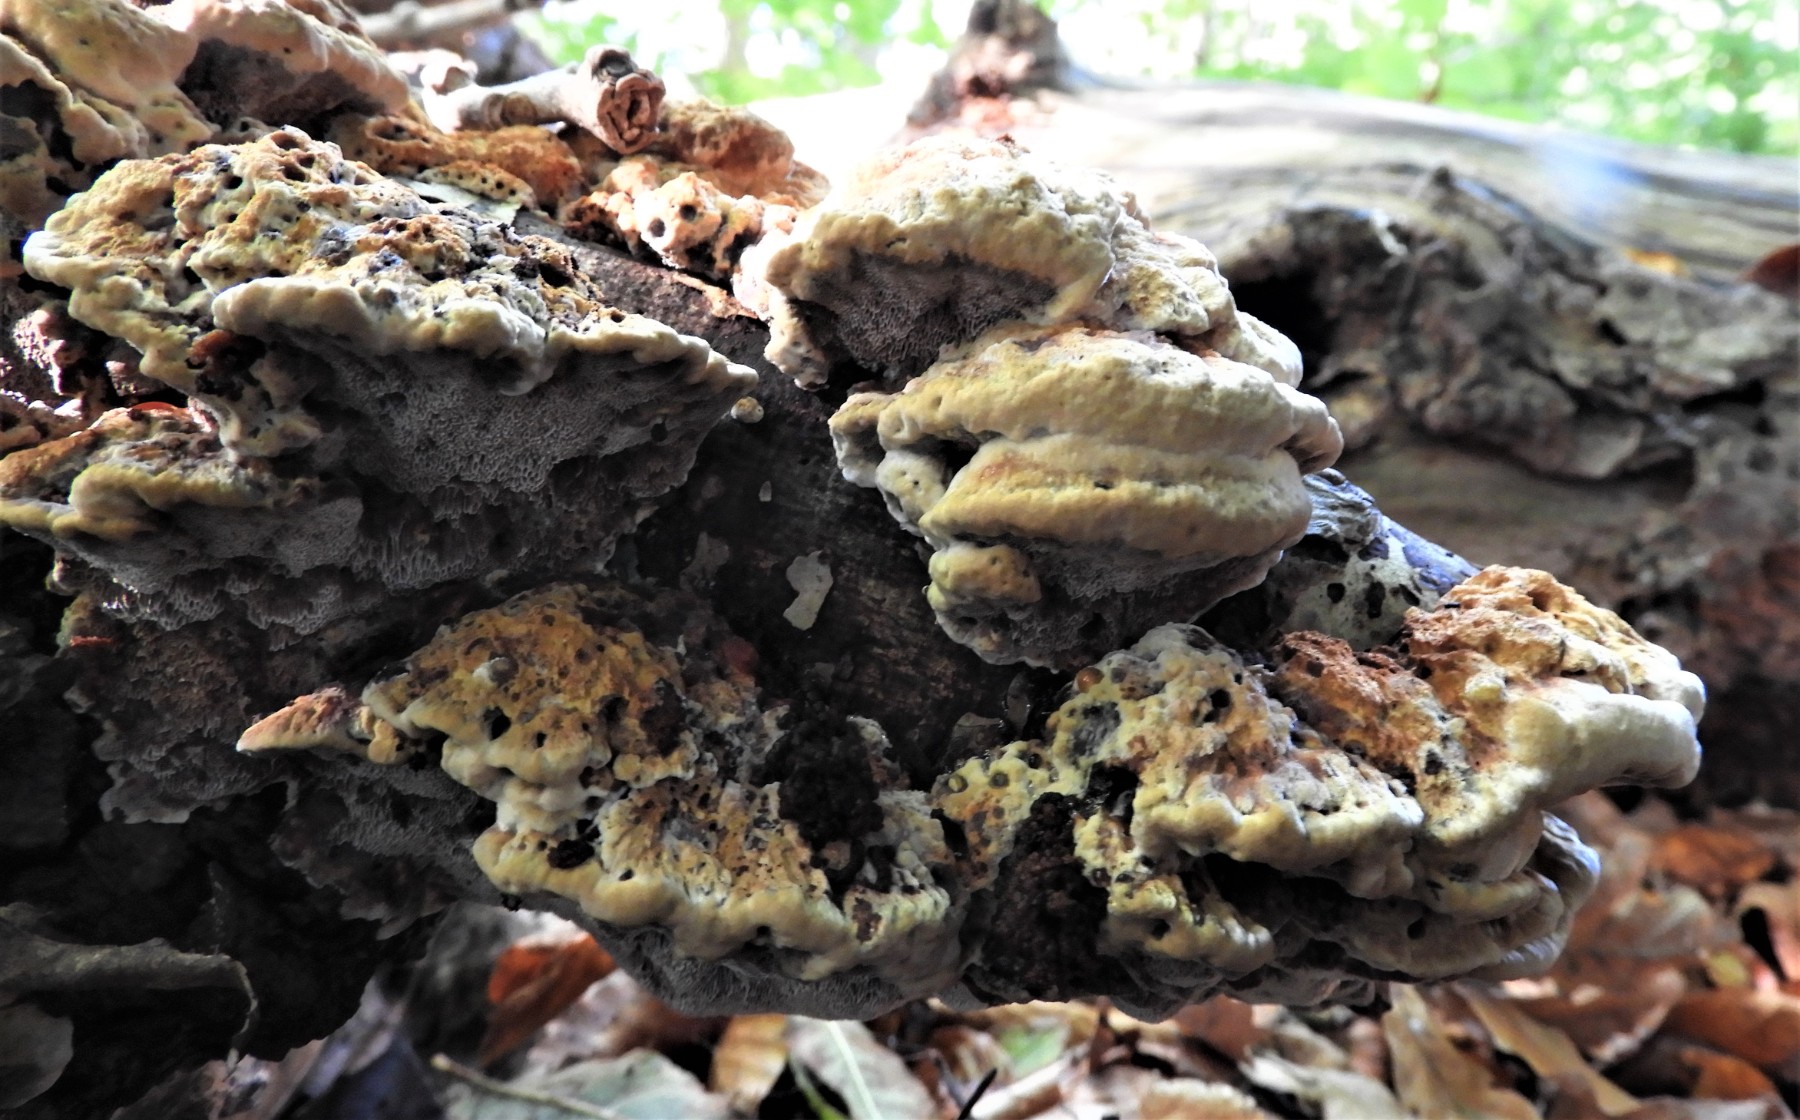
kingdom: Fungi
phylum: Basidiomycota
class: Agaricomycetes
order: Hymenochaetales
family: Hymenochaetaceae
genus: Xanthoporia
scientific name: Xanthoporia radiata
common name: elle-spejlporesvamp
